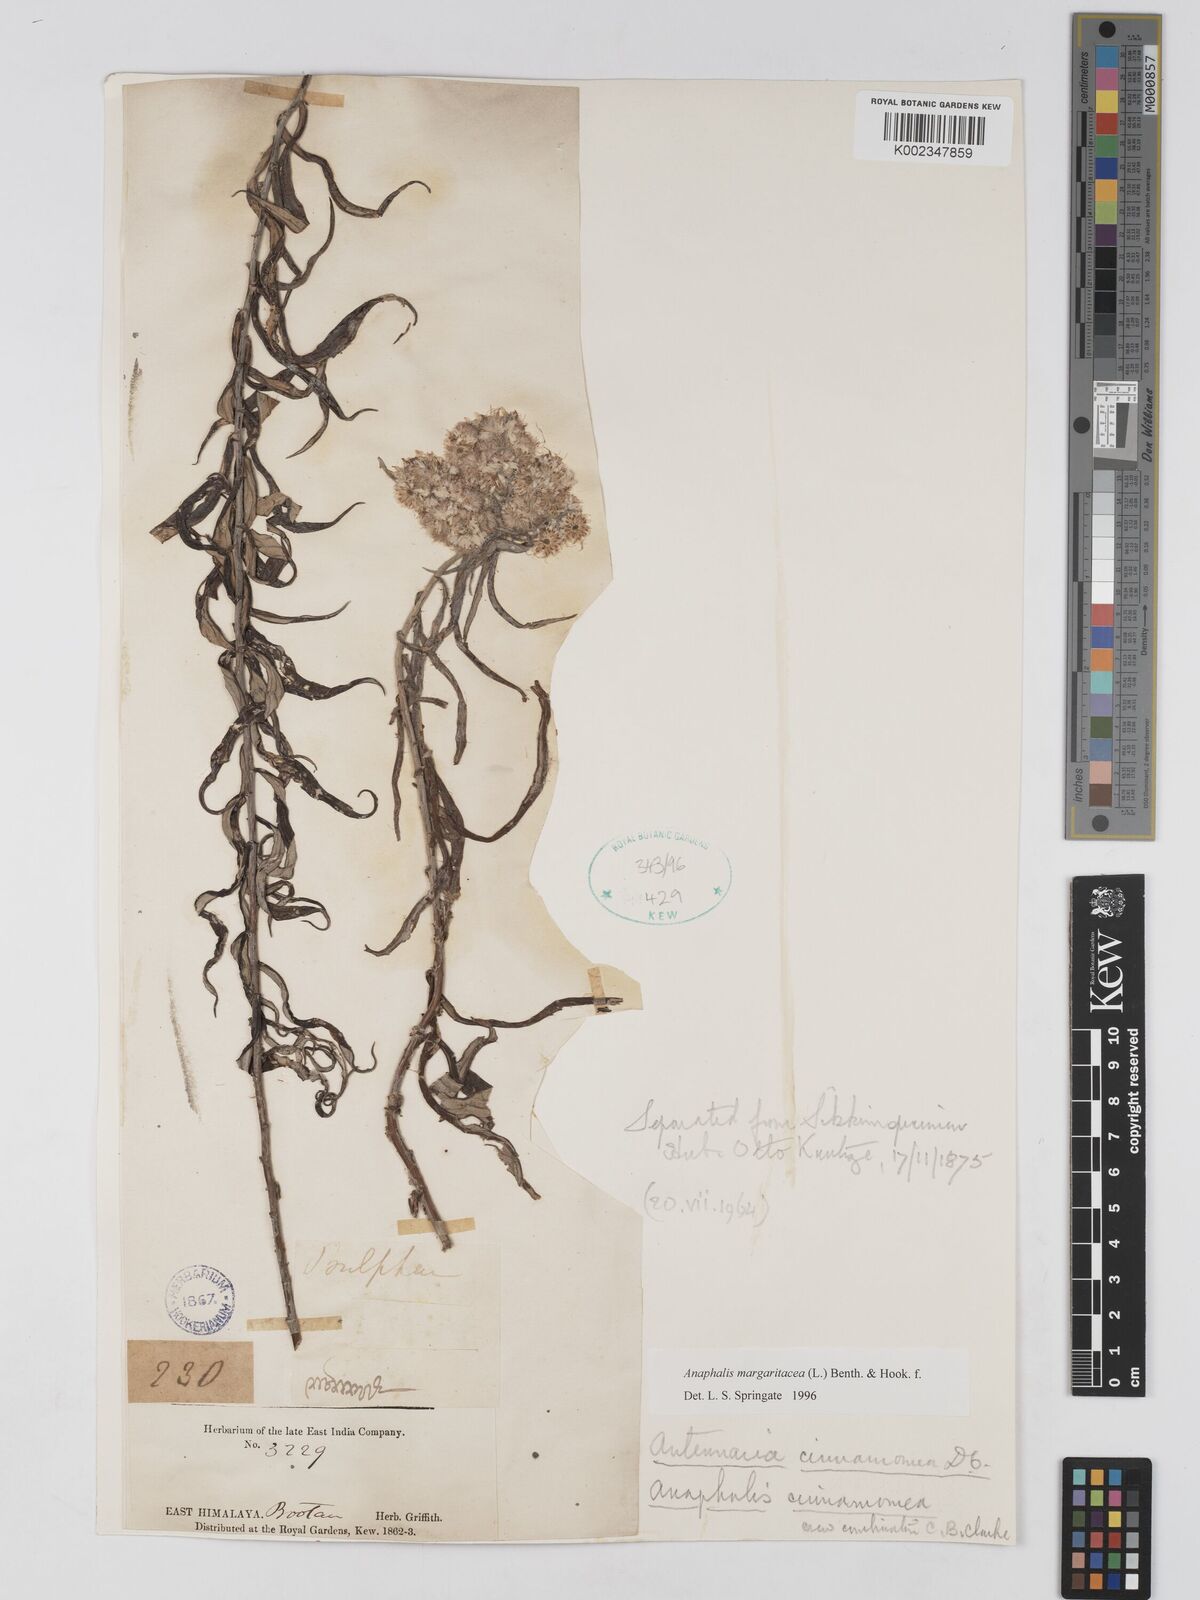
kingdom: Plantae
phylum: Tracheophyta
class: Magnoliopsida
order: Asterales
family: Asteraceae
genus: Anaphalis
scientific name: Anaphalis margaritacea
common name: Pearly everlasting
